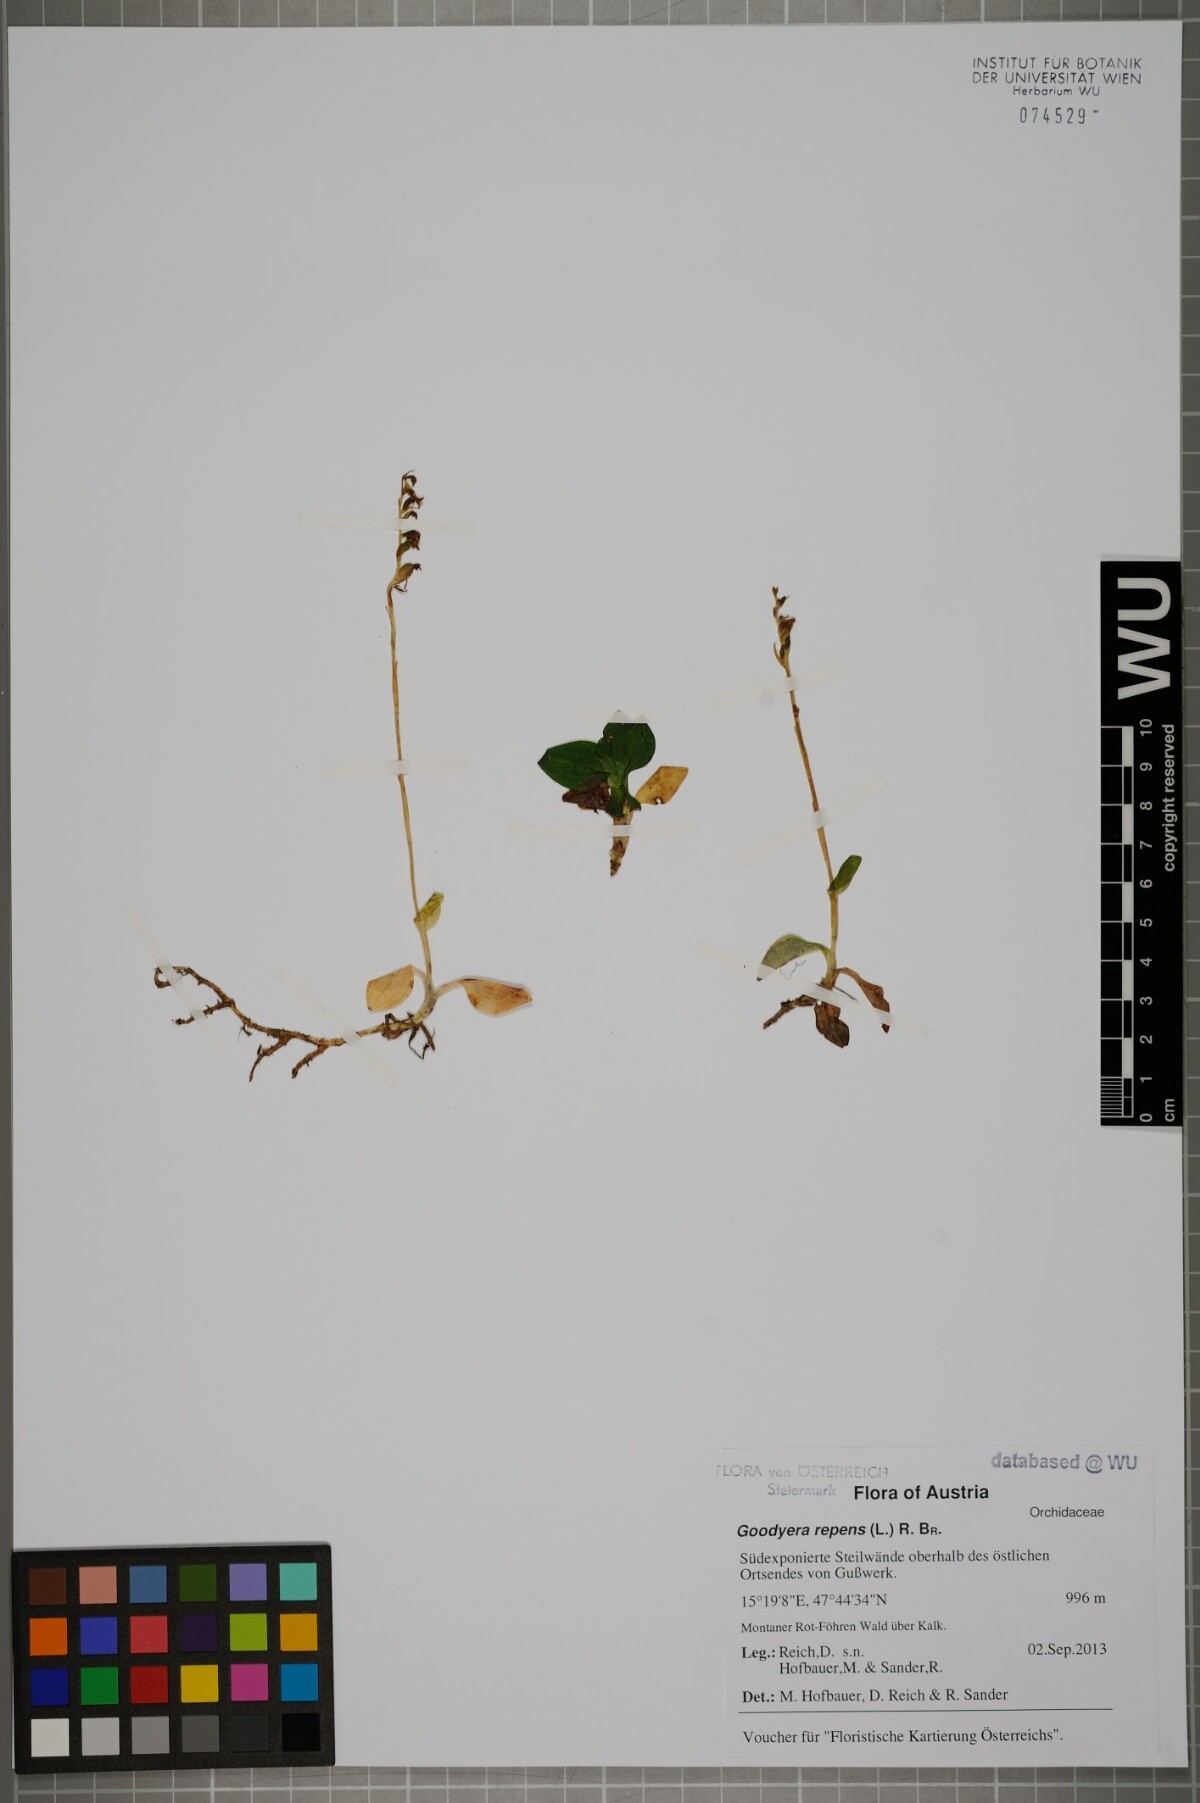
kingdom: Plantae
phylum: Tracheophyta
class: Liliopsida
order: Asparagales
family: Orchidaceae
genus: Goodyera
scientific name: Goodyera repens
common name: Creeping lady's-tresses
